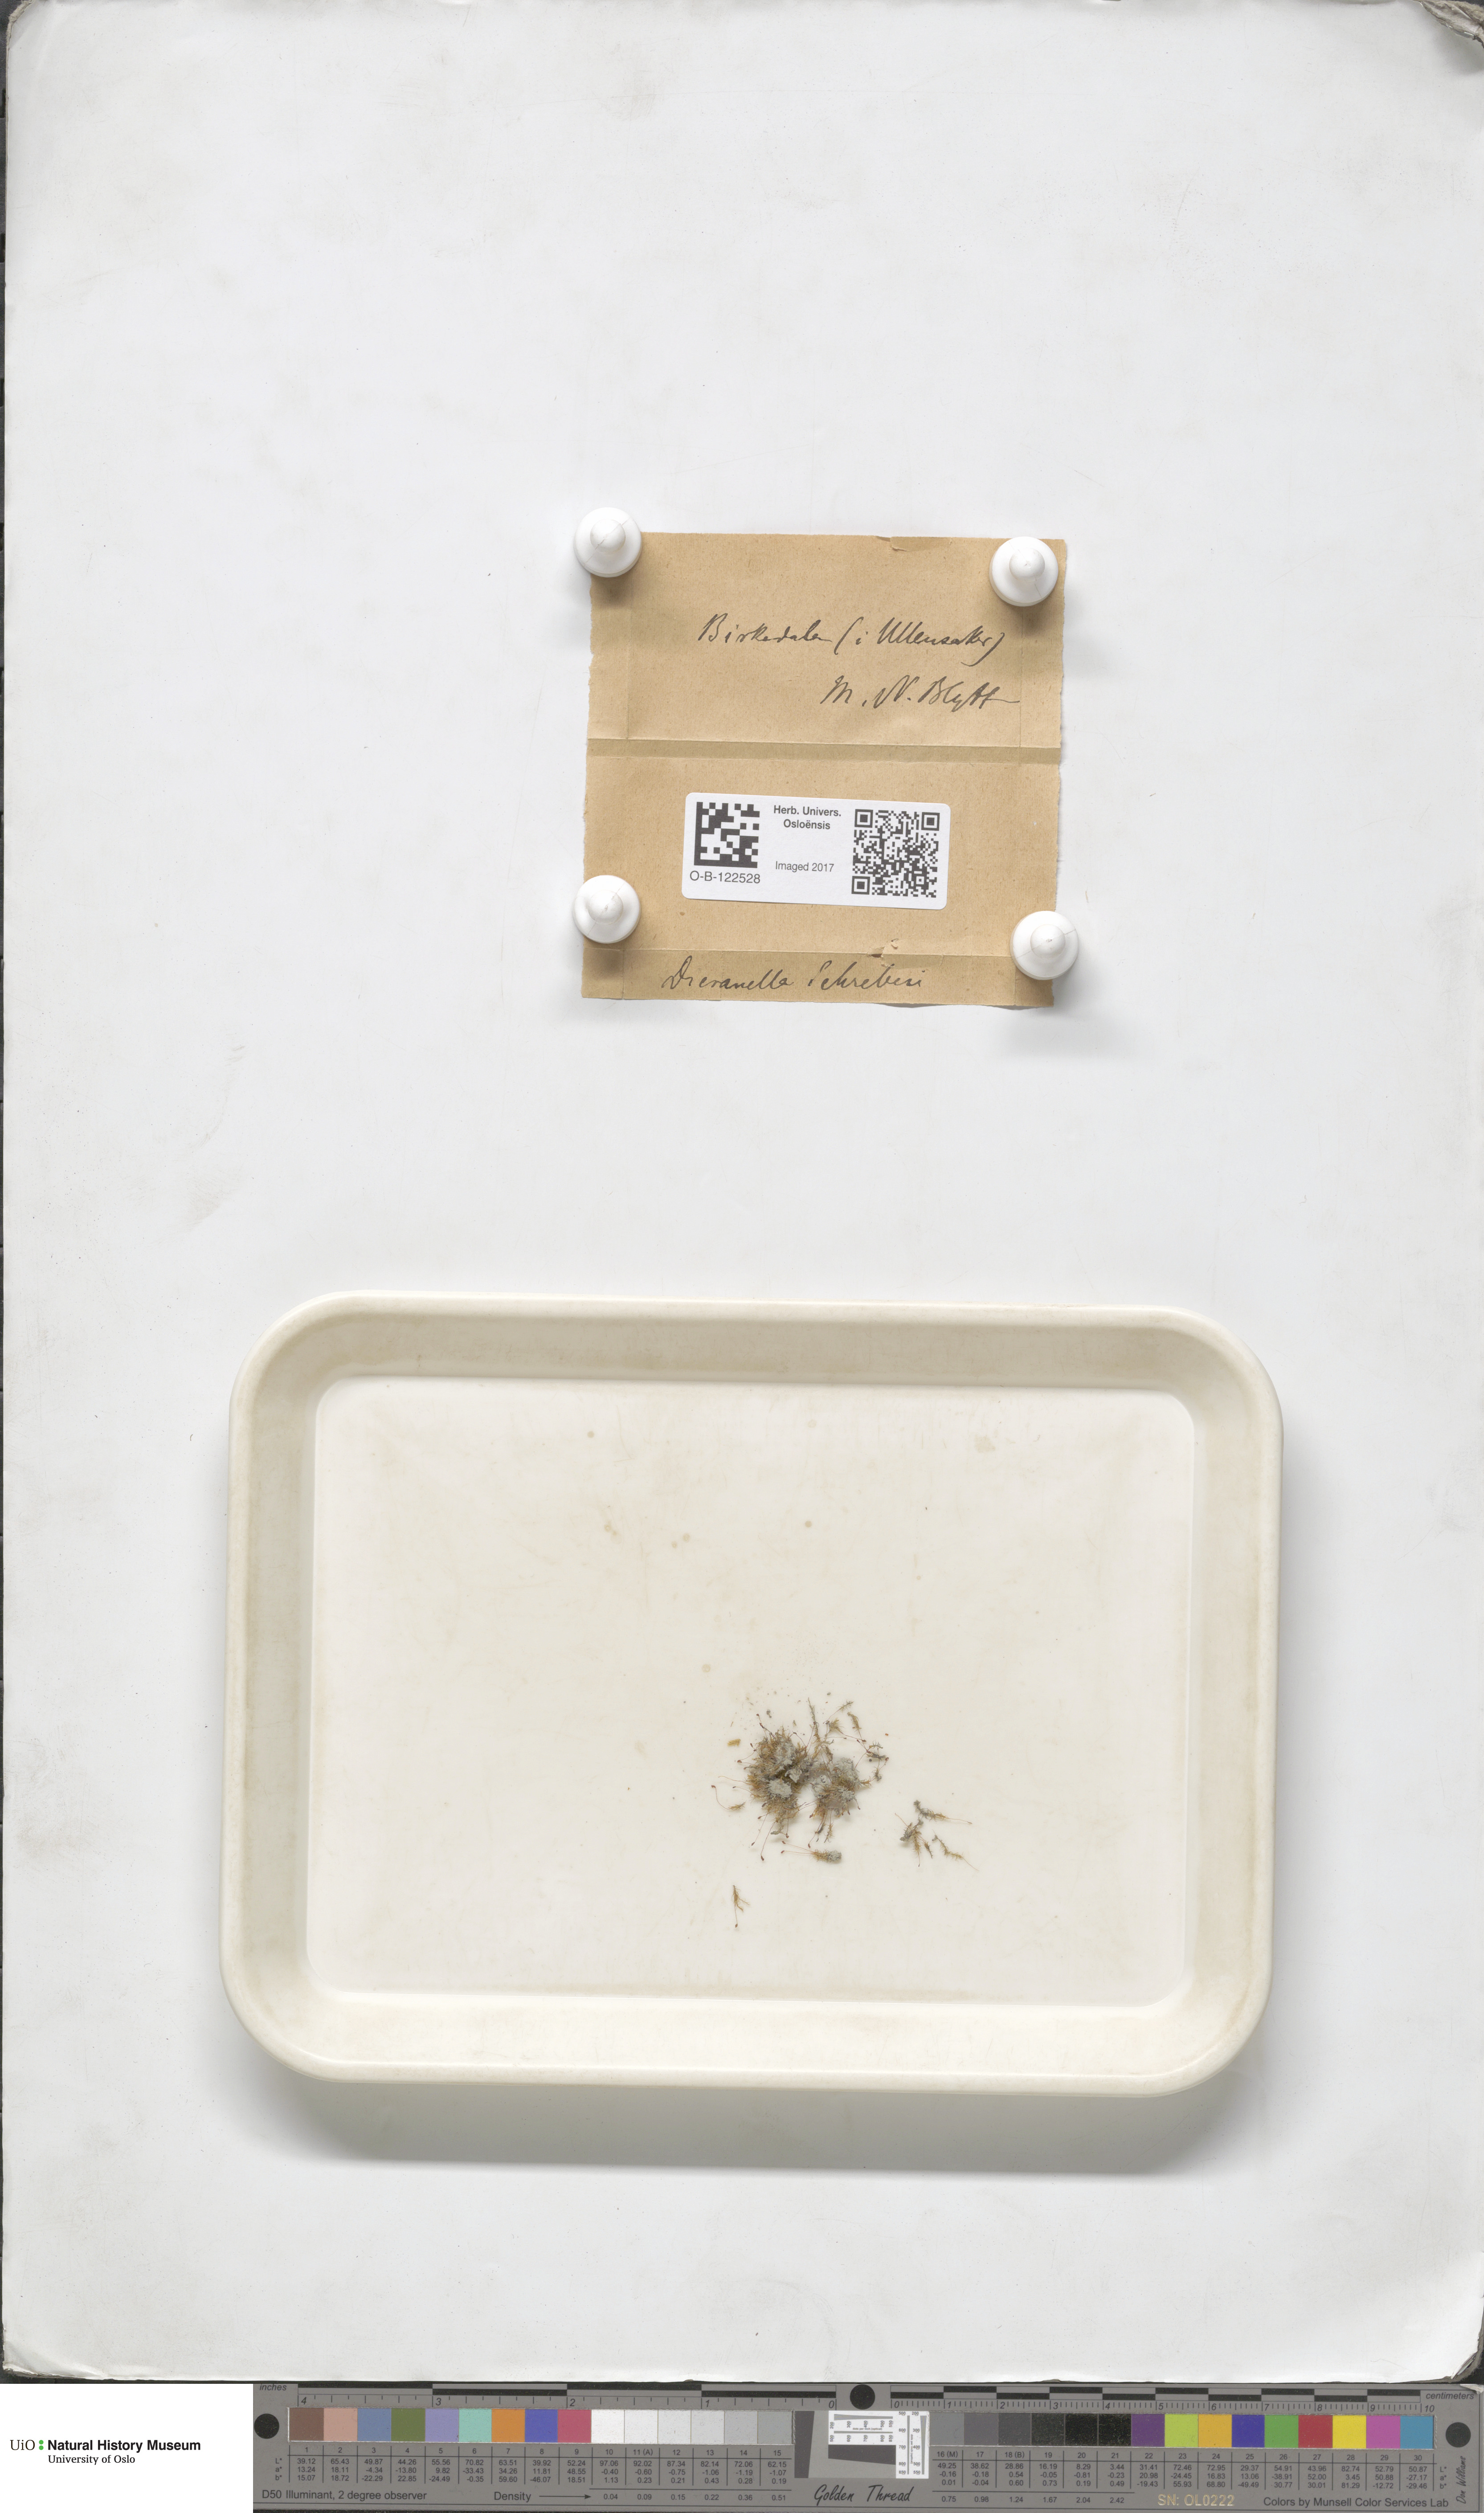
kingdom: Plantae
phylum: Bryophyta
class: Bryopsida
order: Dicranales
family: Dicranellaceae
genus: Dicranella
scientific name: Dicranella schreberiana
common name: Schreber's forklet moss
